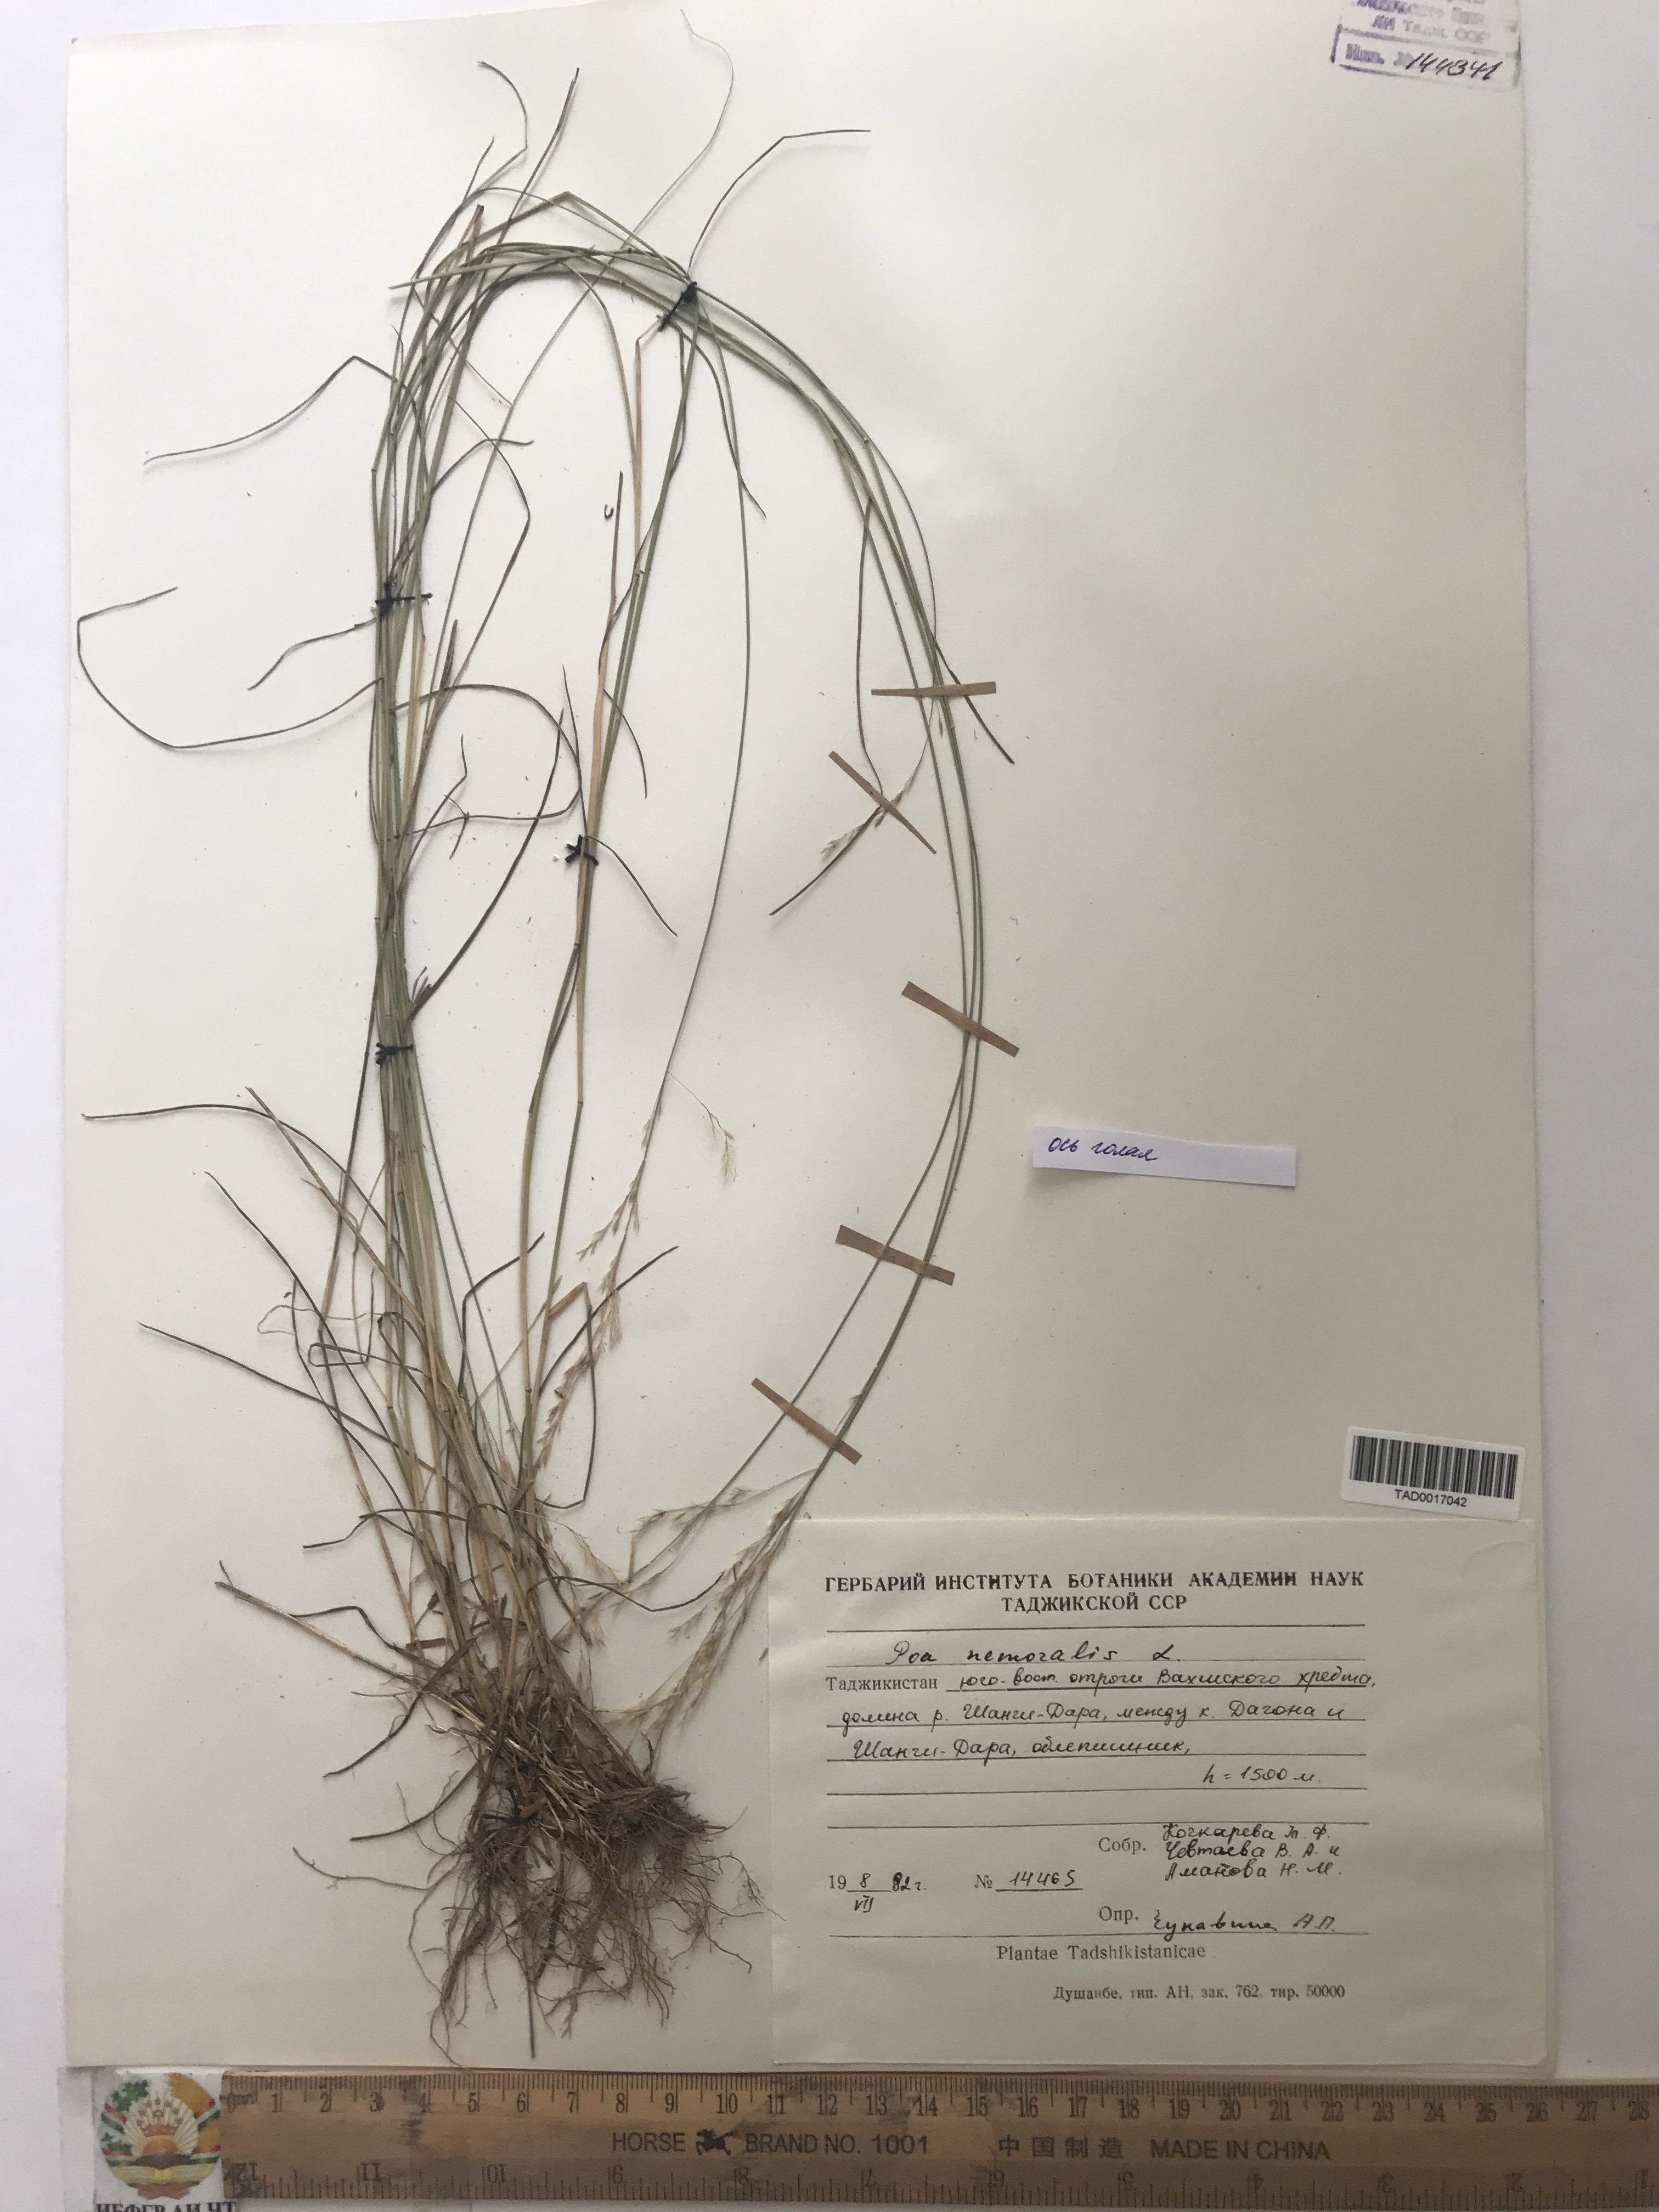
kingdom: Plantae
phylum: Tracheophyta
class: Liliopsida
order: Poales
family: Poaceae
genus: Poa
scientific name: Poa nemoralis
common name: Wood bluegrass
